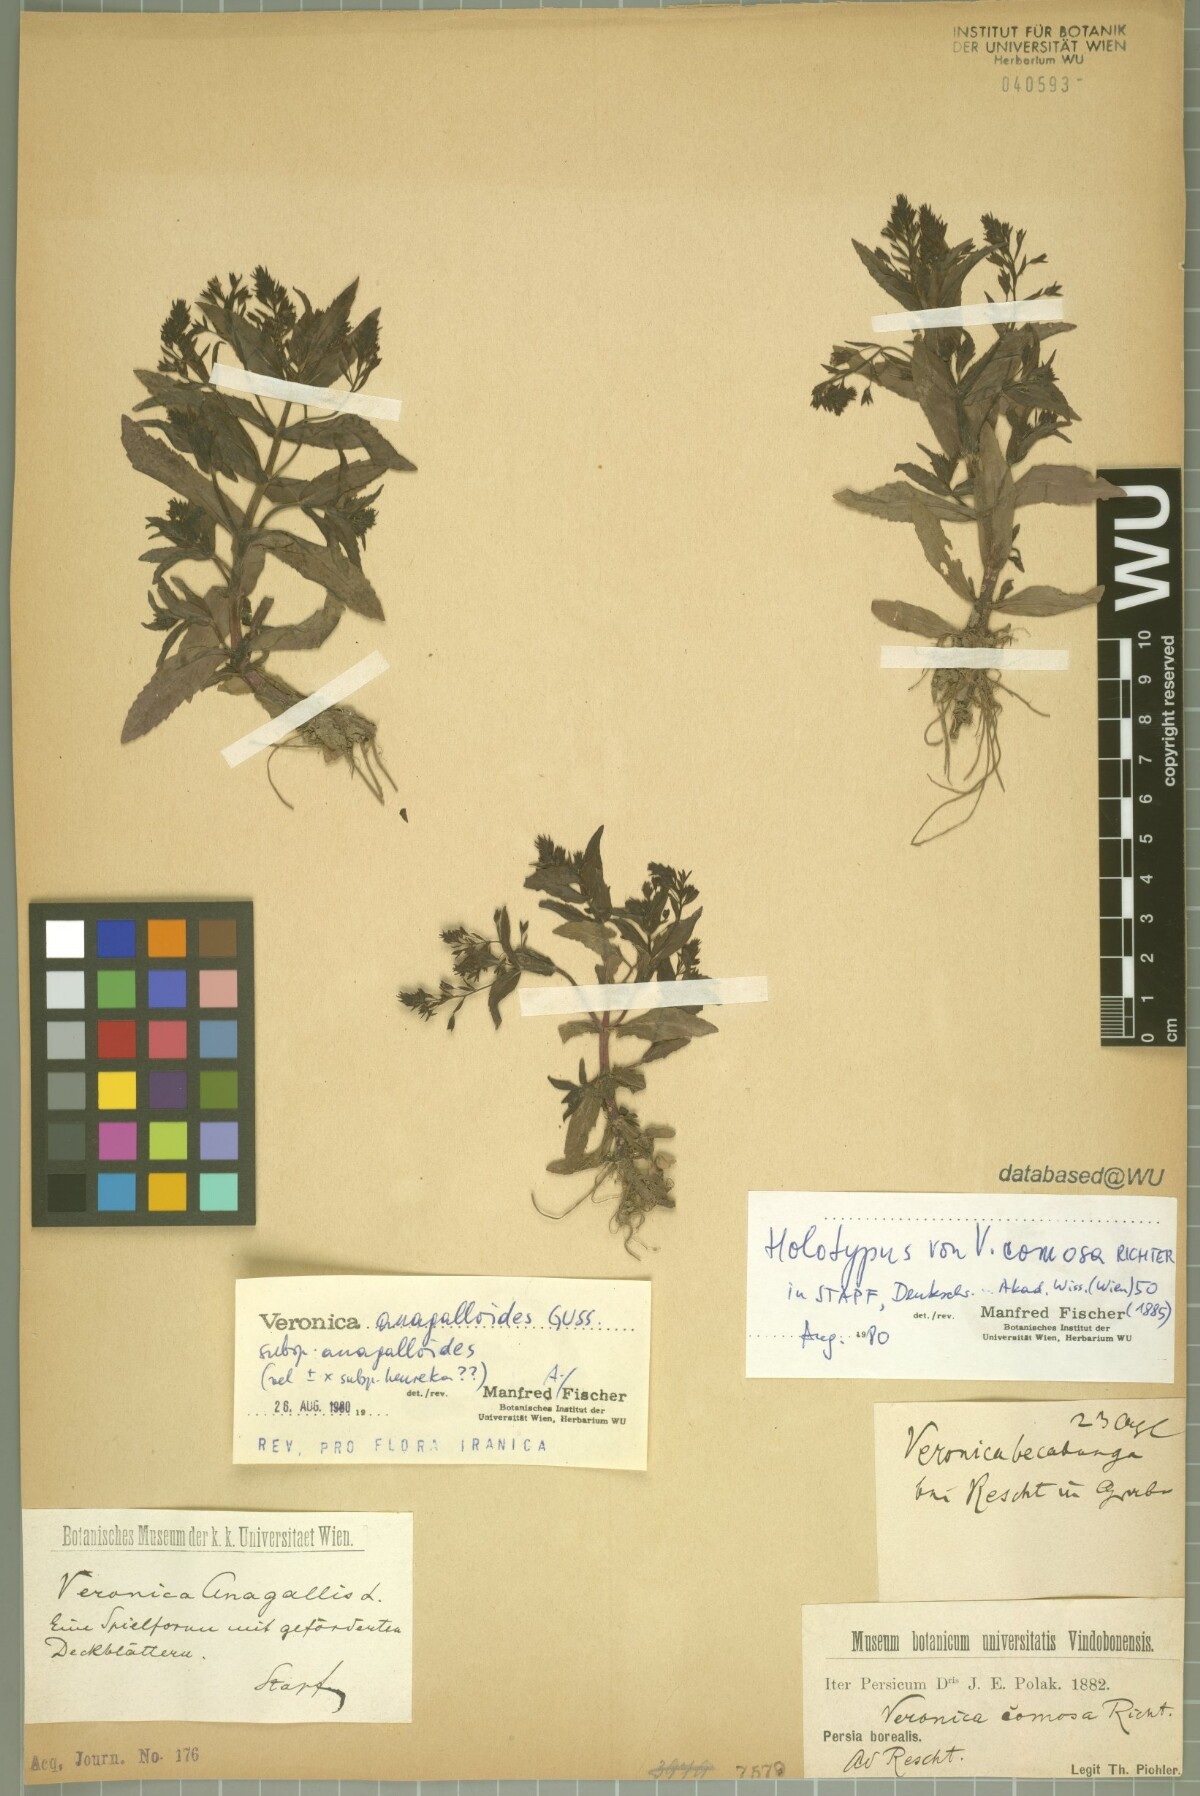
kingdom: Plantae
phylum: Tracheophyta
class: Magnoliopsida
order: Lamiales
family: Plantaginaceae
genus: Veronica
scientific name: Veronica catenata
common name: Pink water-speedwell
